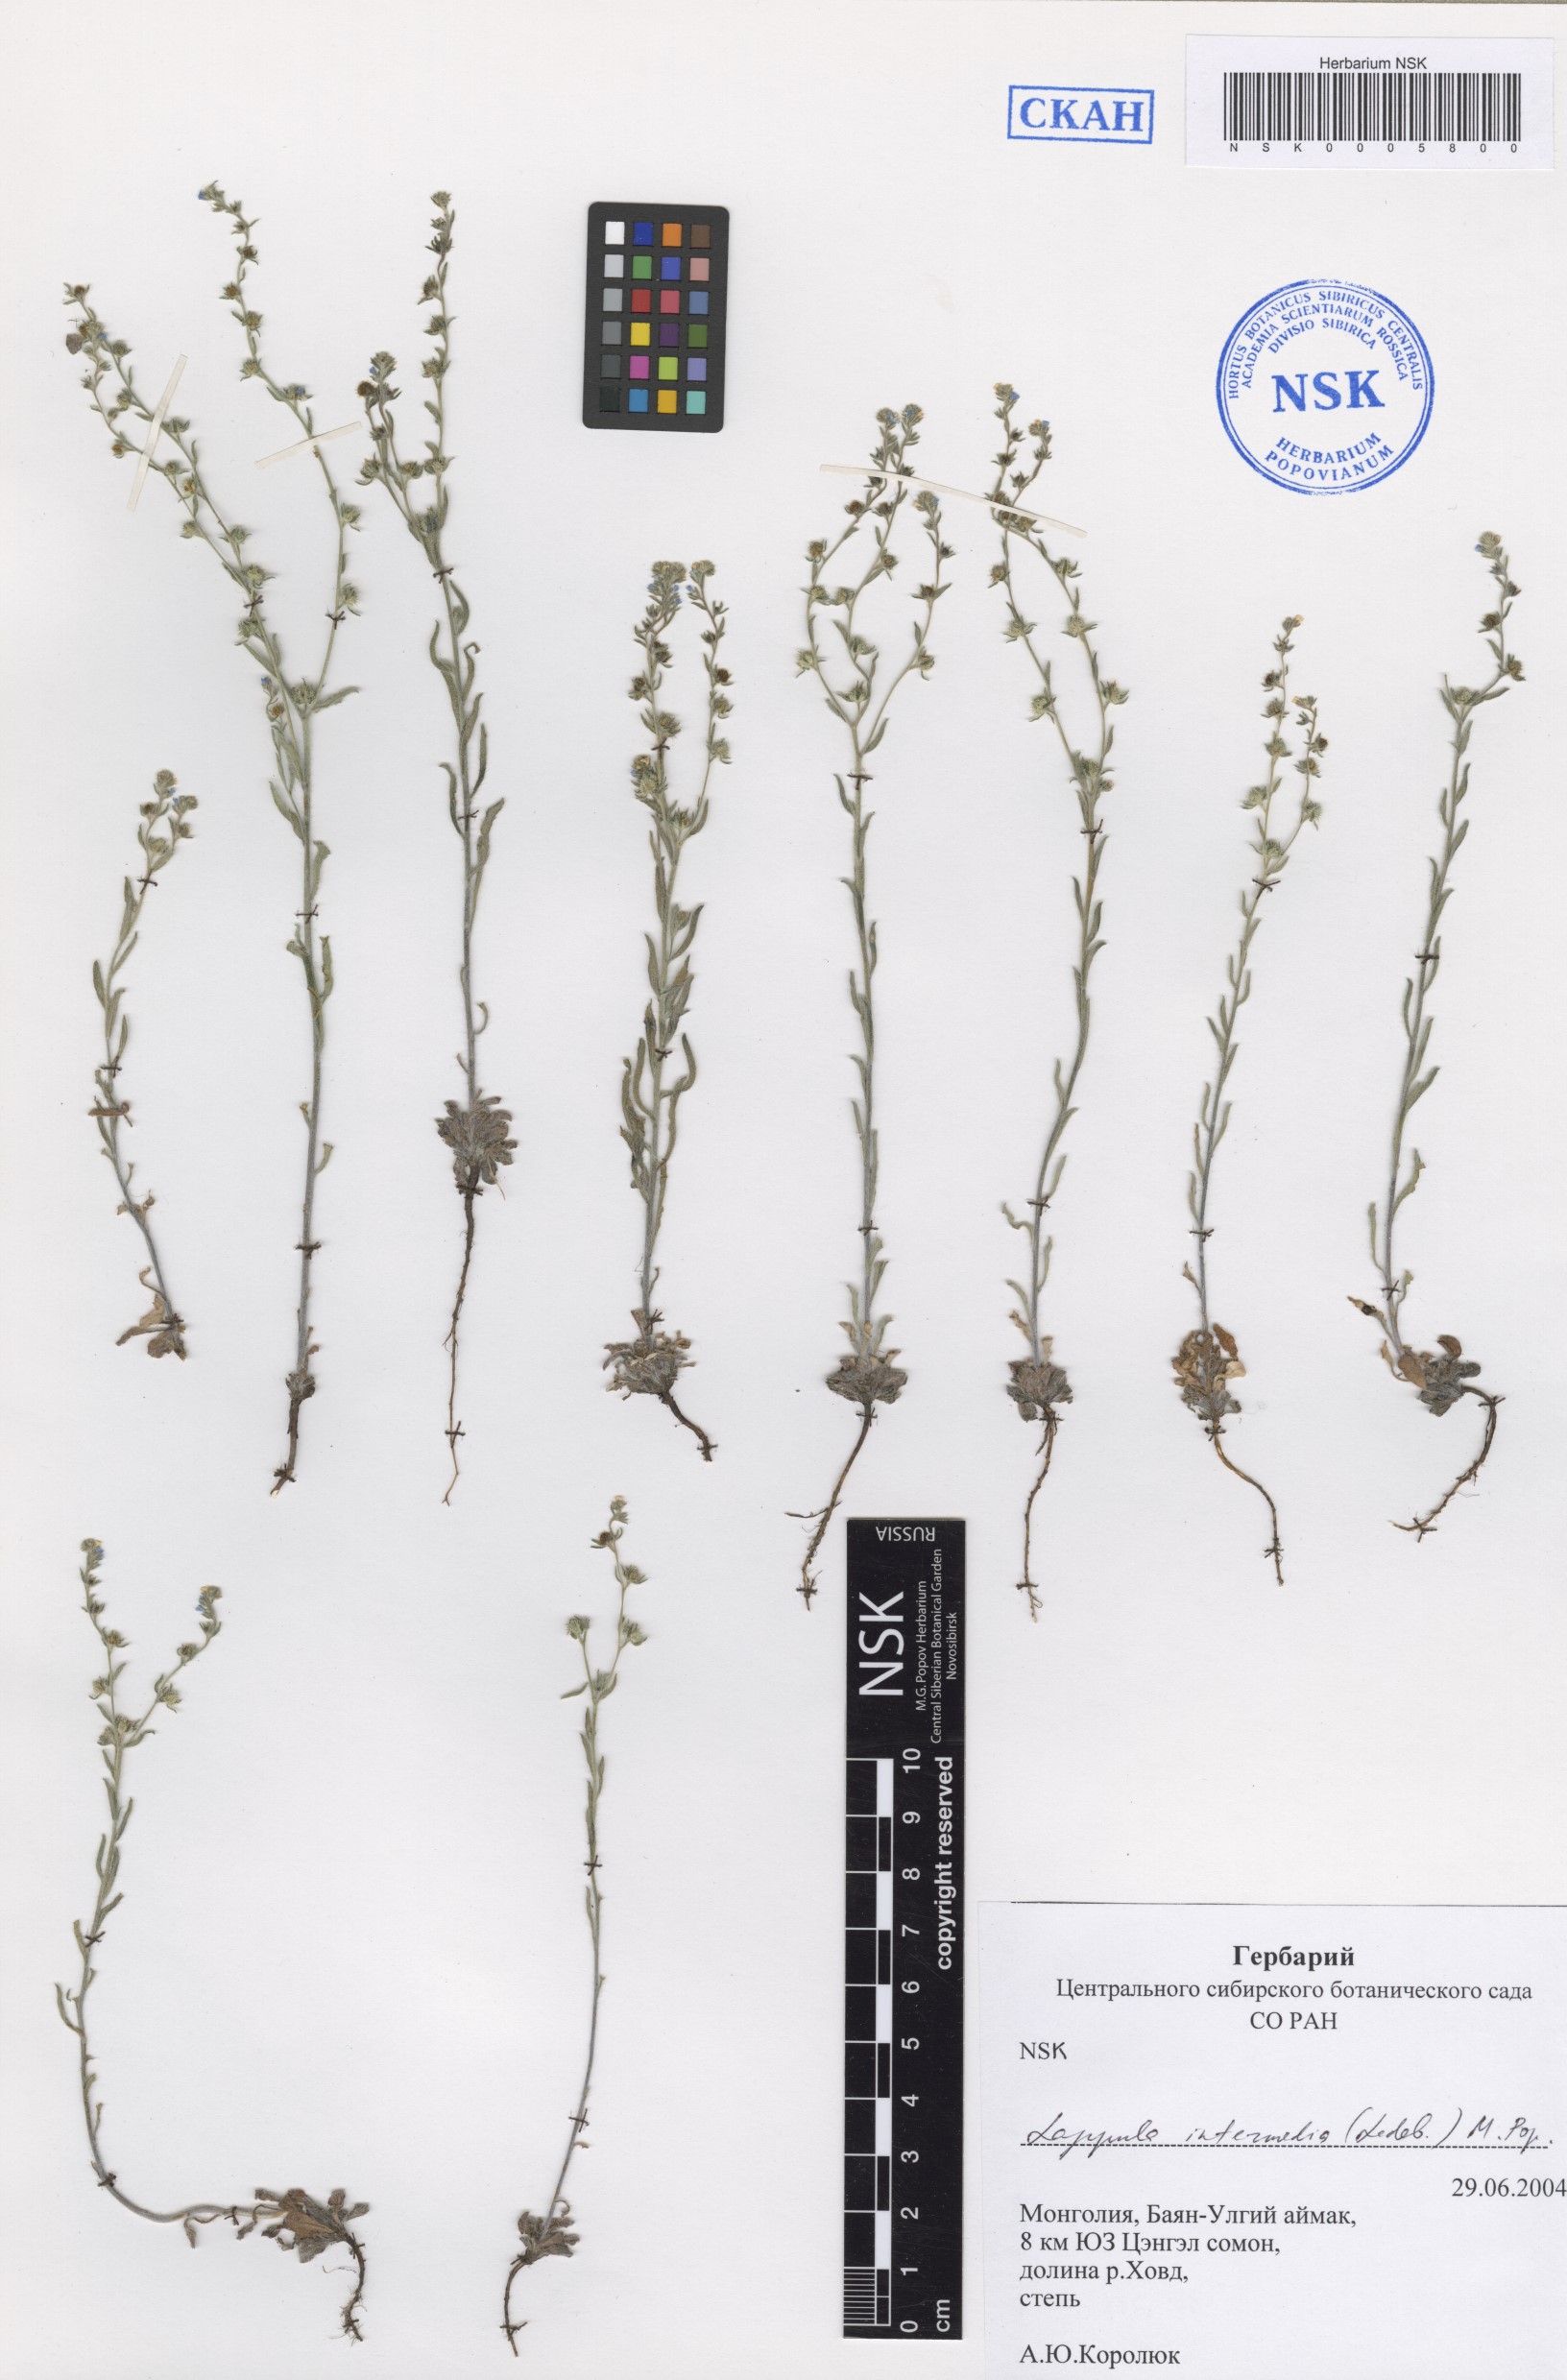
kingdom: Plantae
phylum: Tracheophyta
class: Magnoliopsida
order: Boraginales
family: Boraginaceae
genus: Lappula
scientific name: Lappula intermedia
